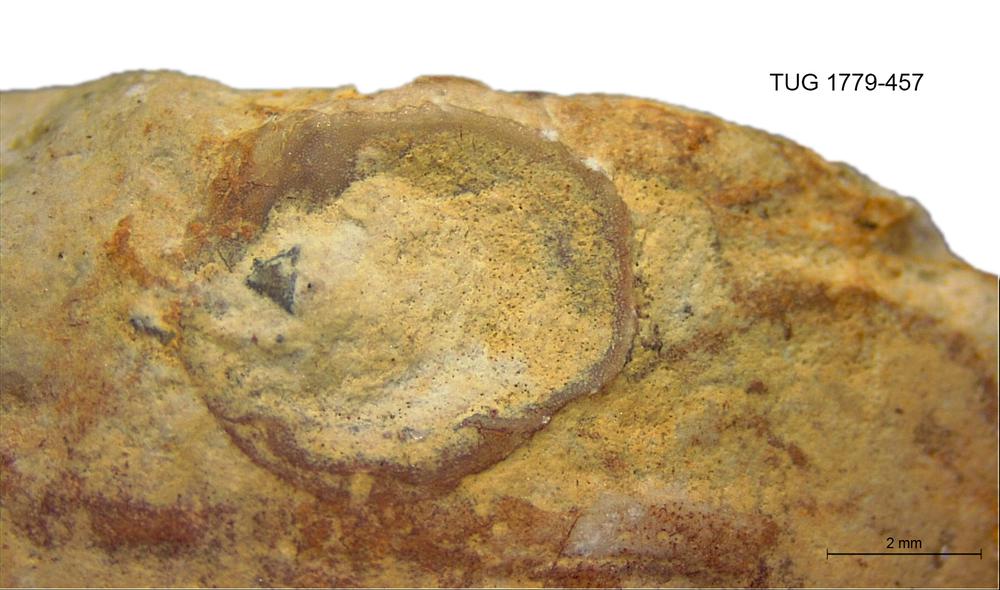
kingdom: Animalia
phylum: Brachiopoda
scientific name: Brachiopoda
